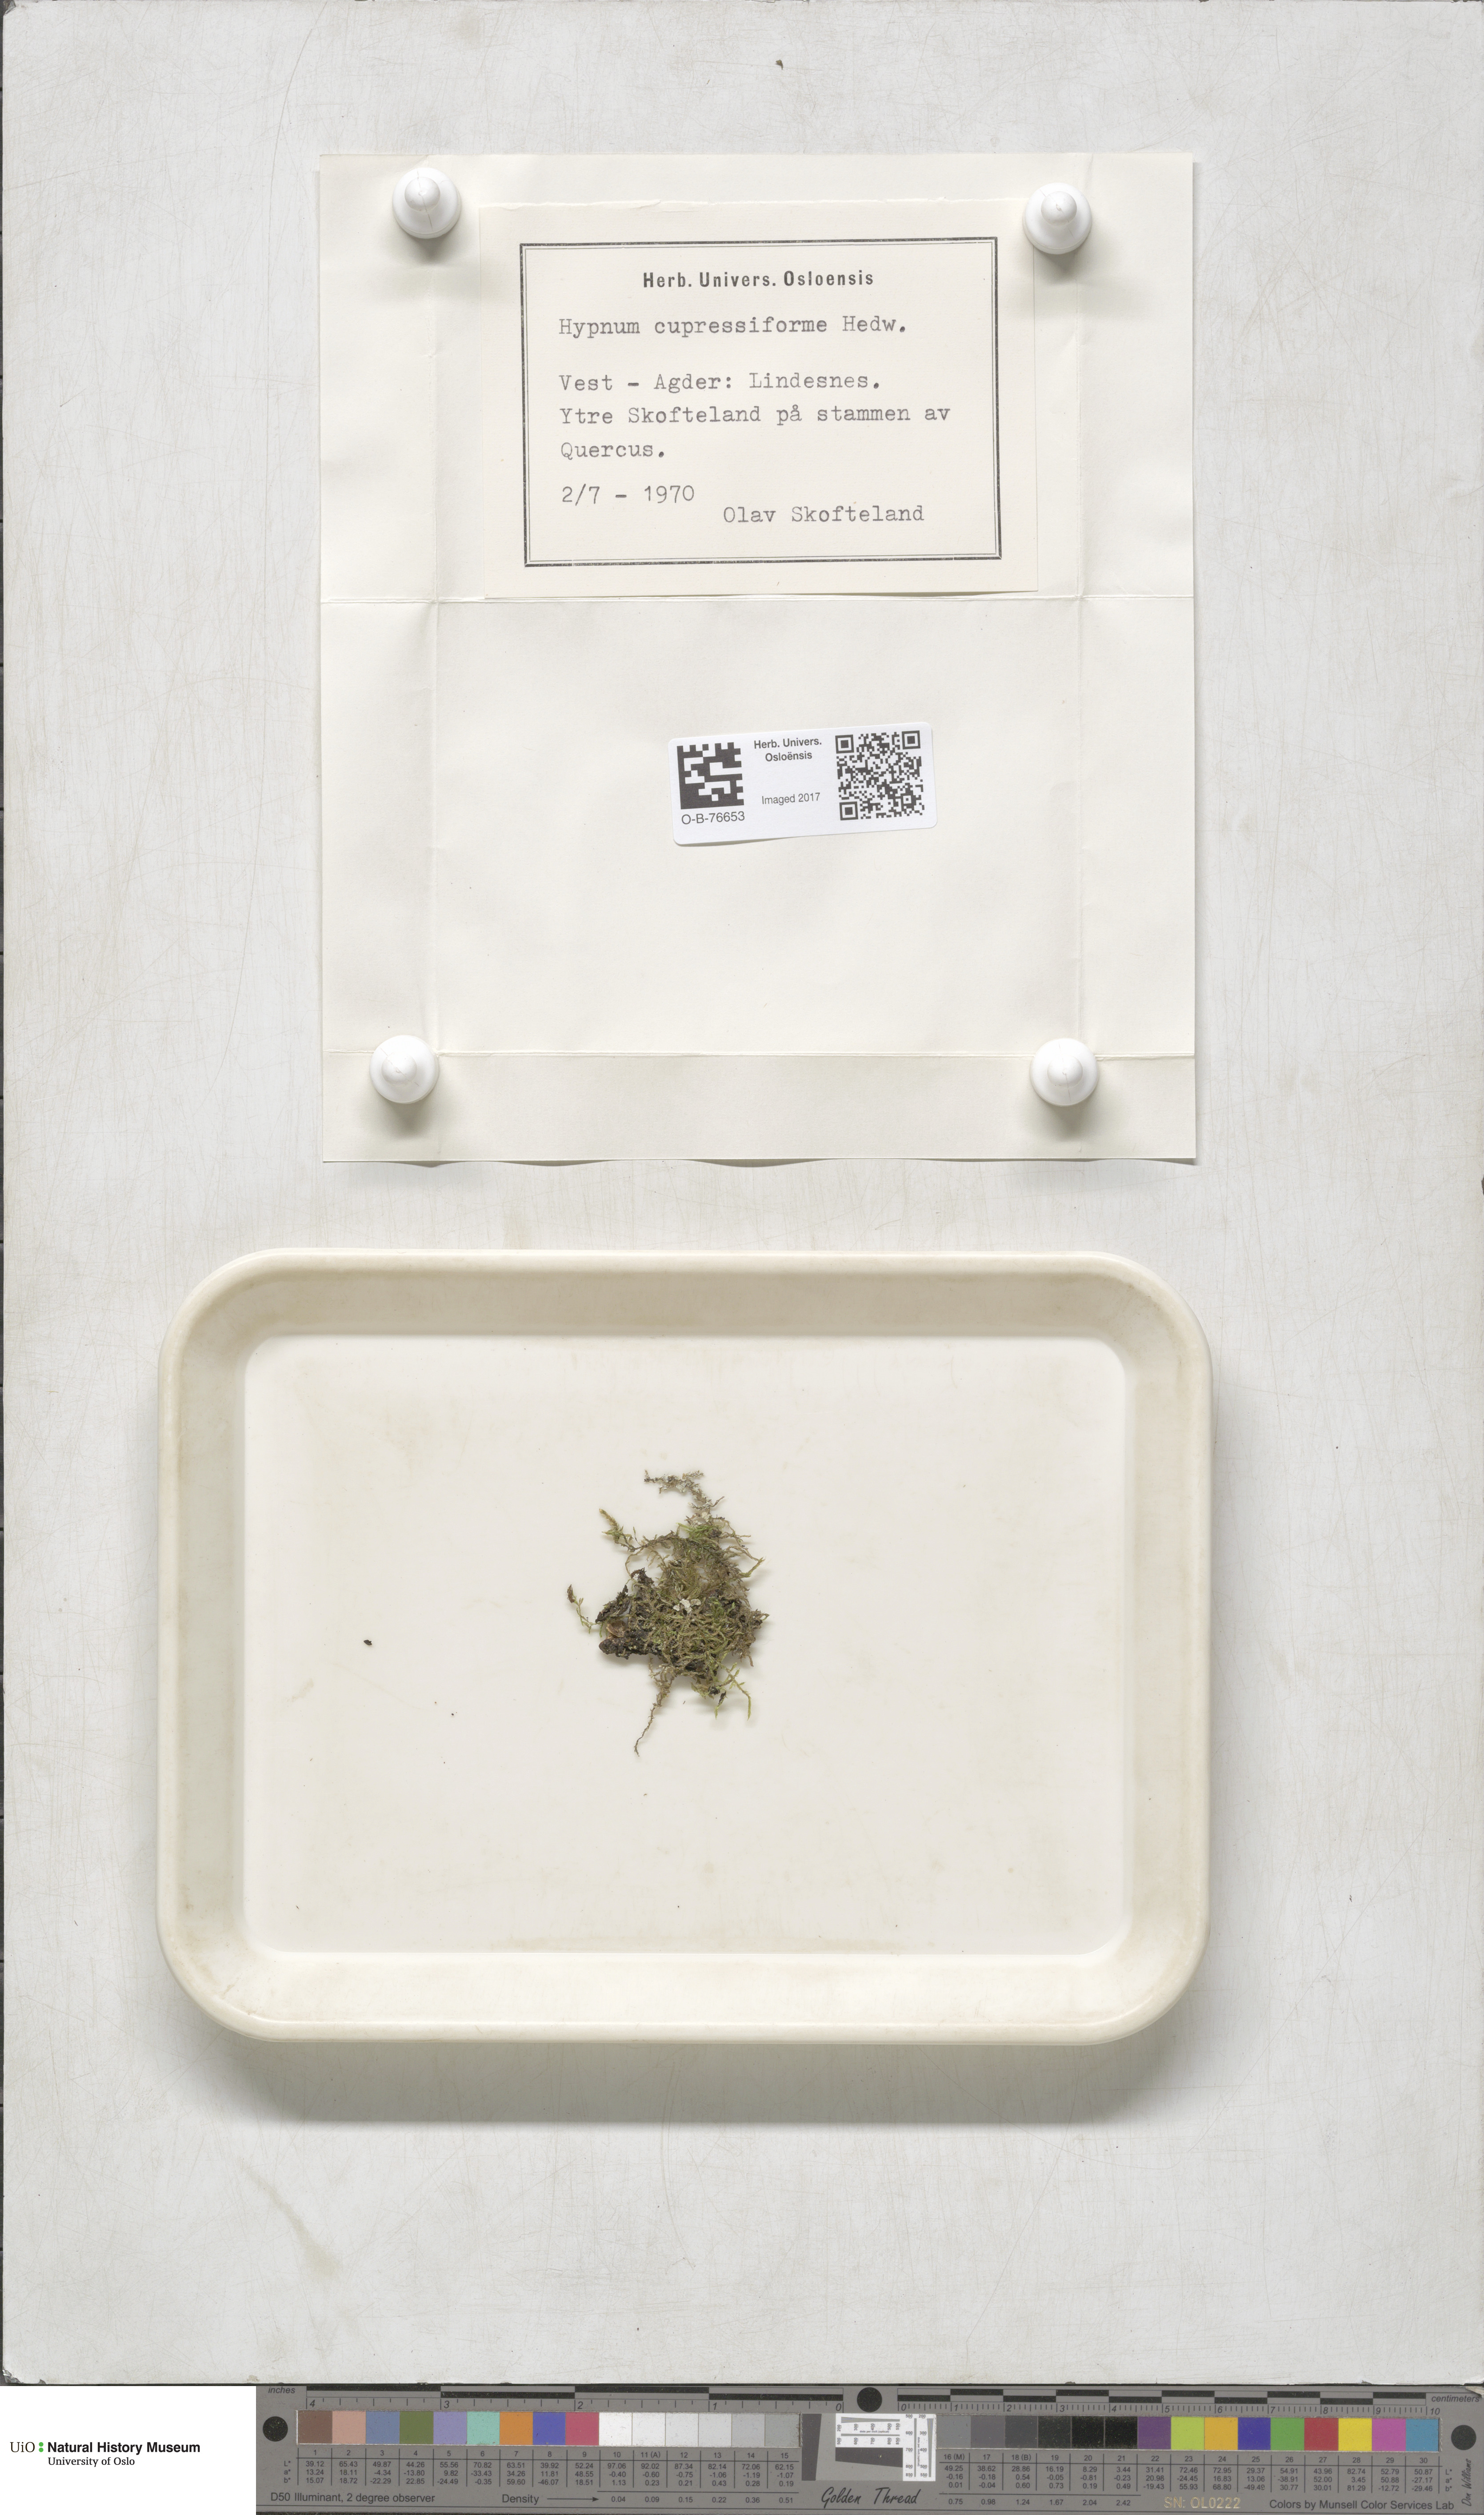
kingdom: Plantae
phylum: Bryophyta
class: Bryopsida
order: Hypnales
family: Hypnaceae
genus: Hypnum
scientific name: Hypnum cupressiforme
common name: Cypress-leaved plait-moss
